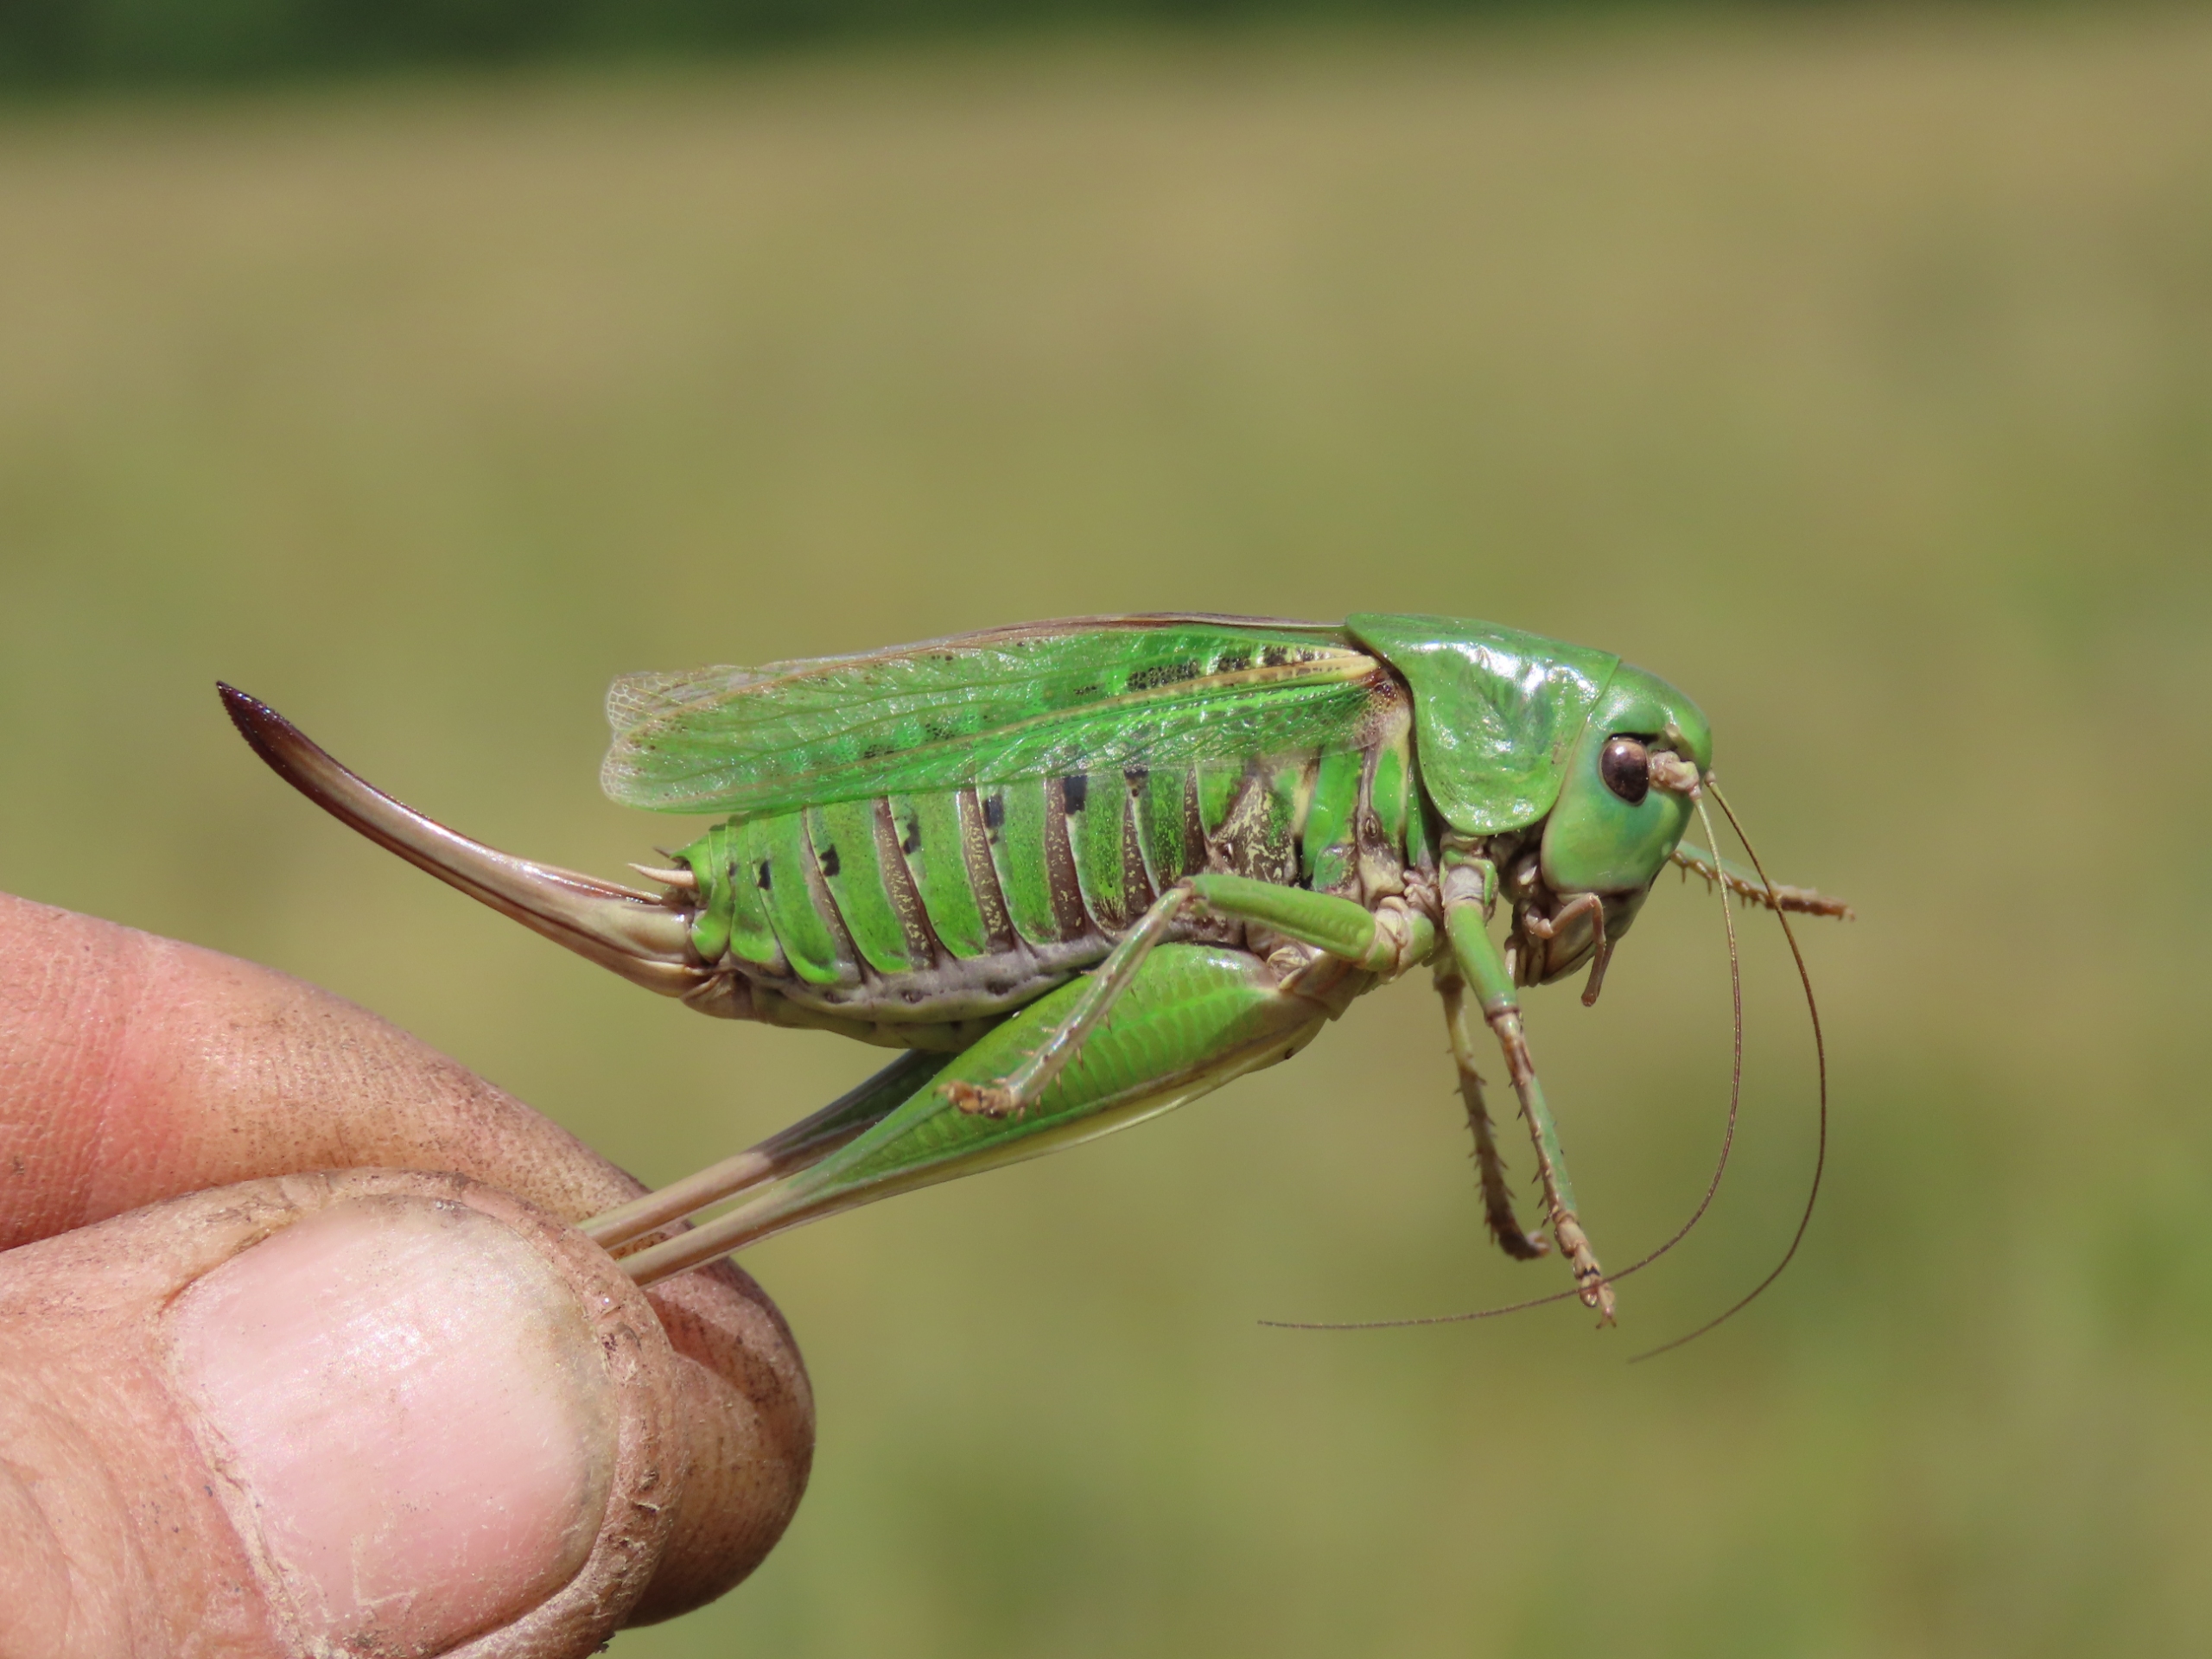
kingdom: Animalia
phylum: Arthropoda
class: Insecta
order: Orthoptera
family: Tettigoniidae
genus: Decticus
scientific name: Decticus verrucivorus
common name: Vortebider
